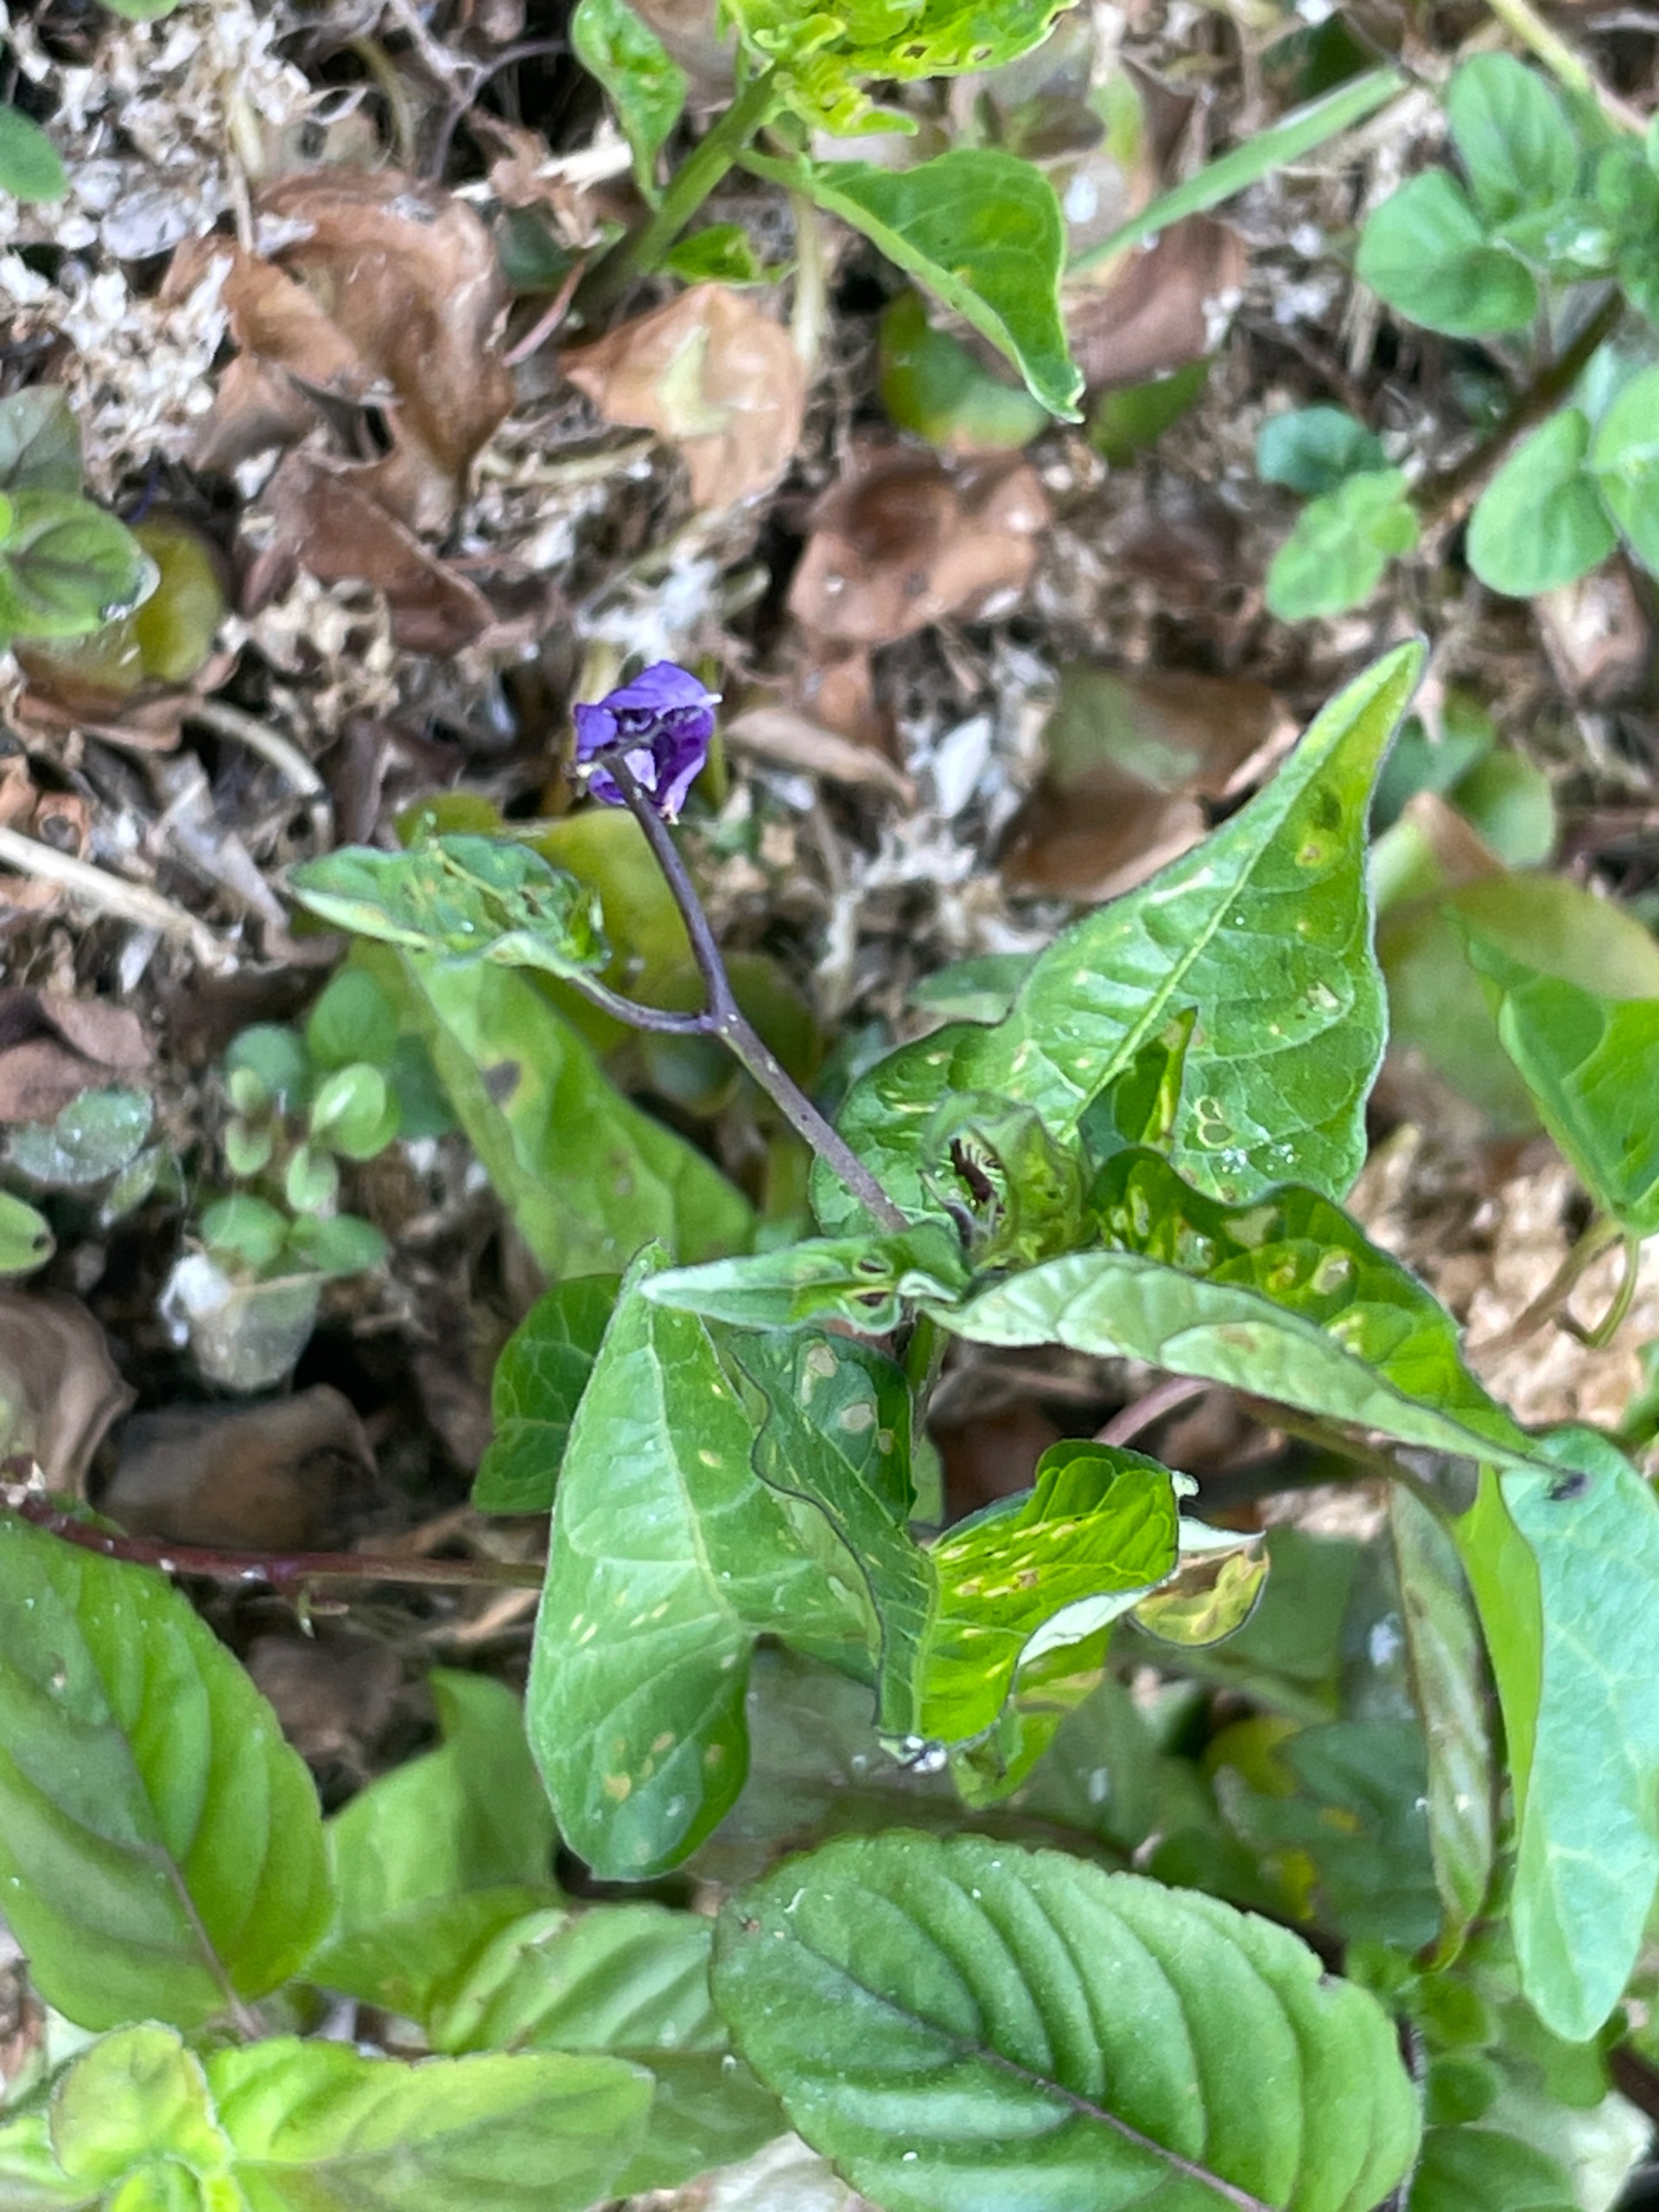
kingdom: Plantae
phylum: Tracheophyta
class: Magnoliopsida
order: Solanales
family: Solanaceae
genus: Solanum
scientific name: Solanum dulcamara
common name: Bittersød natskygge
